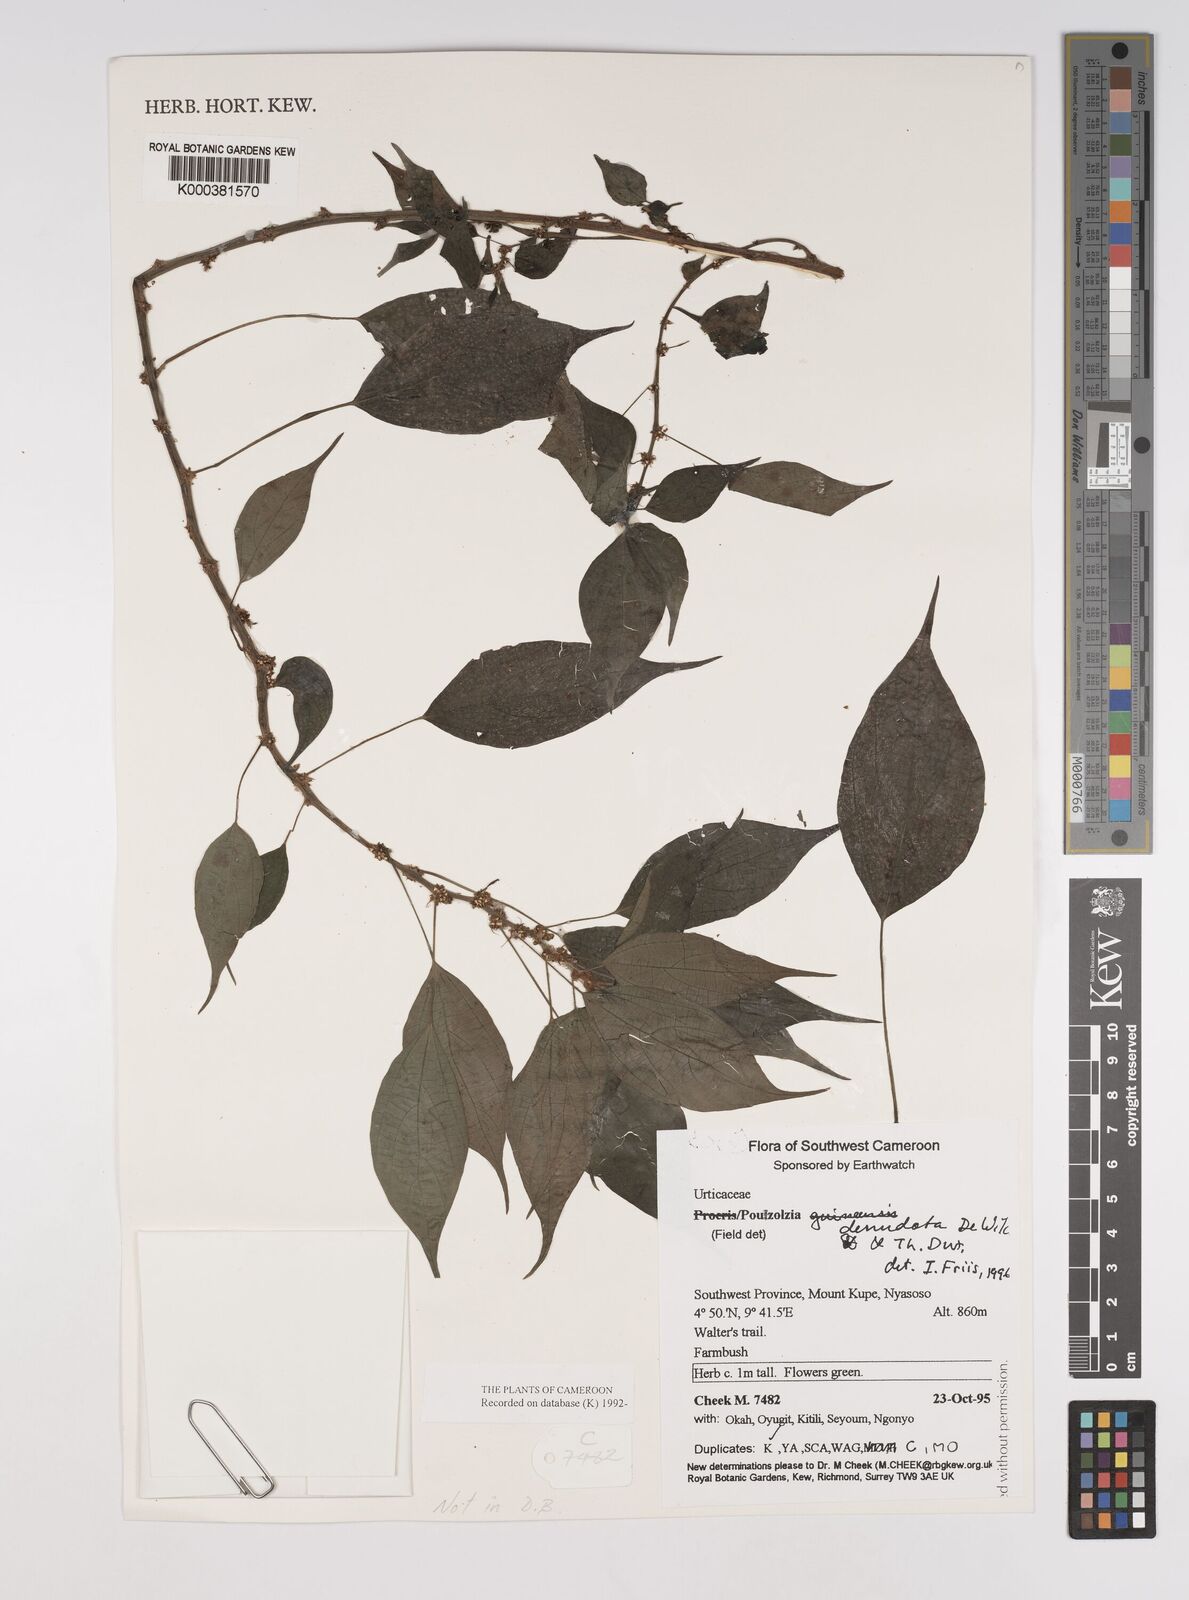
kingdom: Plantae
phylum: Tracheophyta
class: Magnoliopsida
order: Rosales
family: Urticaceae
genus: Pouzolzia
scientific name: Pouzolzia denudata
